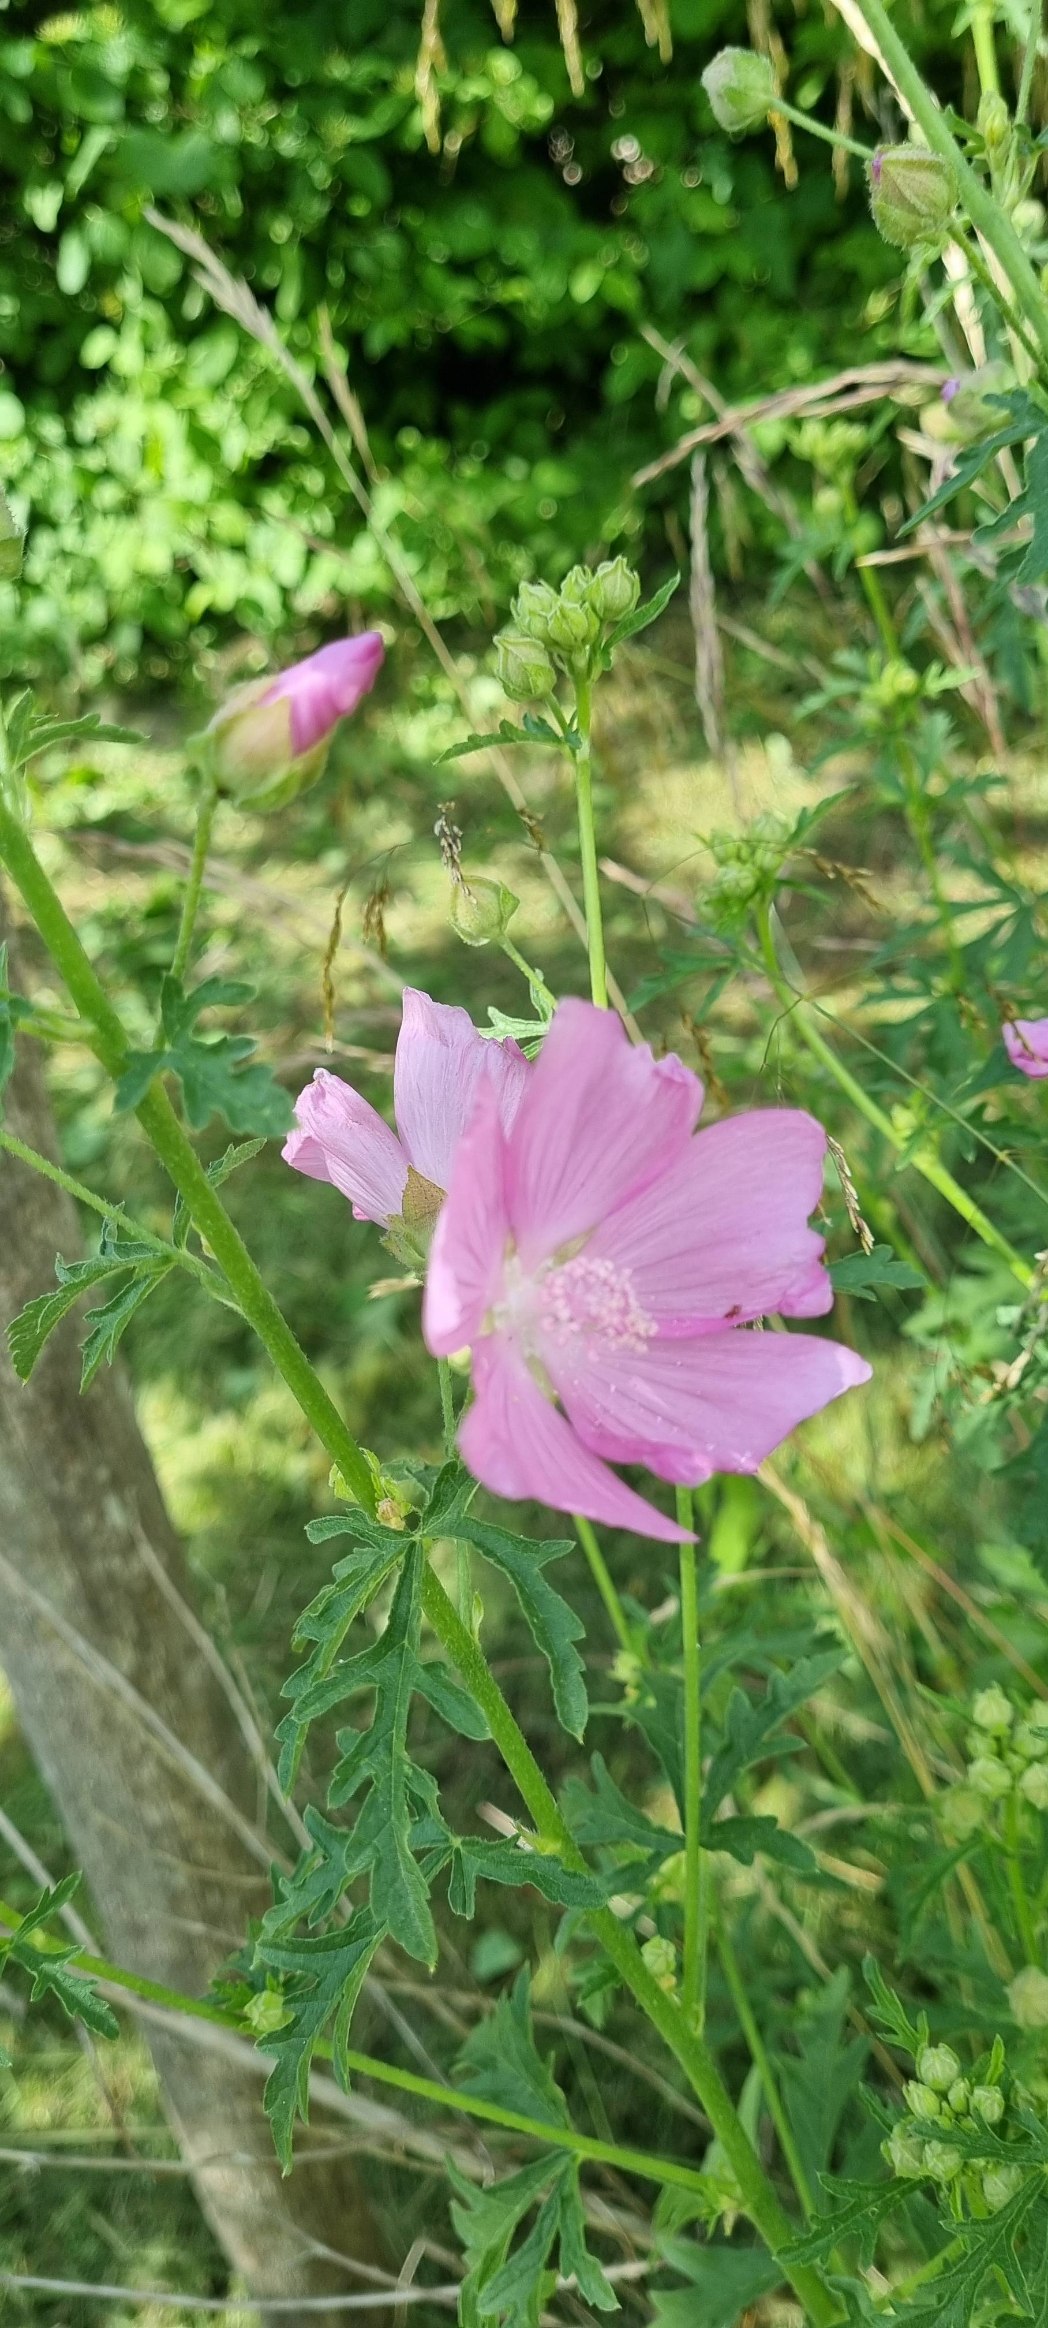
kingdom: Plantae
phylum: Tracheophyta
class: Magnoliopsida
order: Malvales
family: Malvaceae
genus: Malva
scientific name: Malva alcea
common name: Rosen-katost
